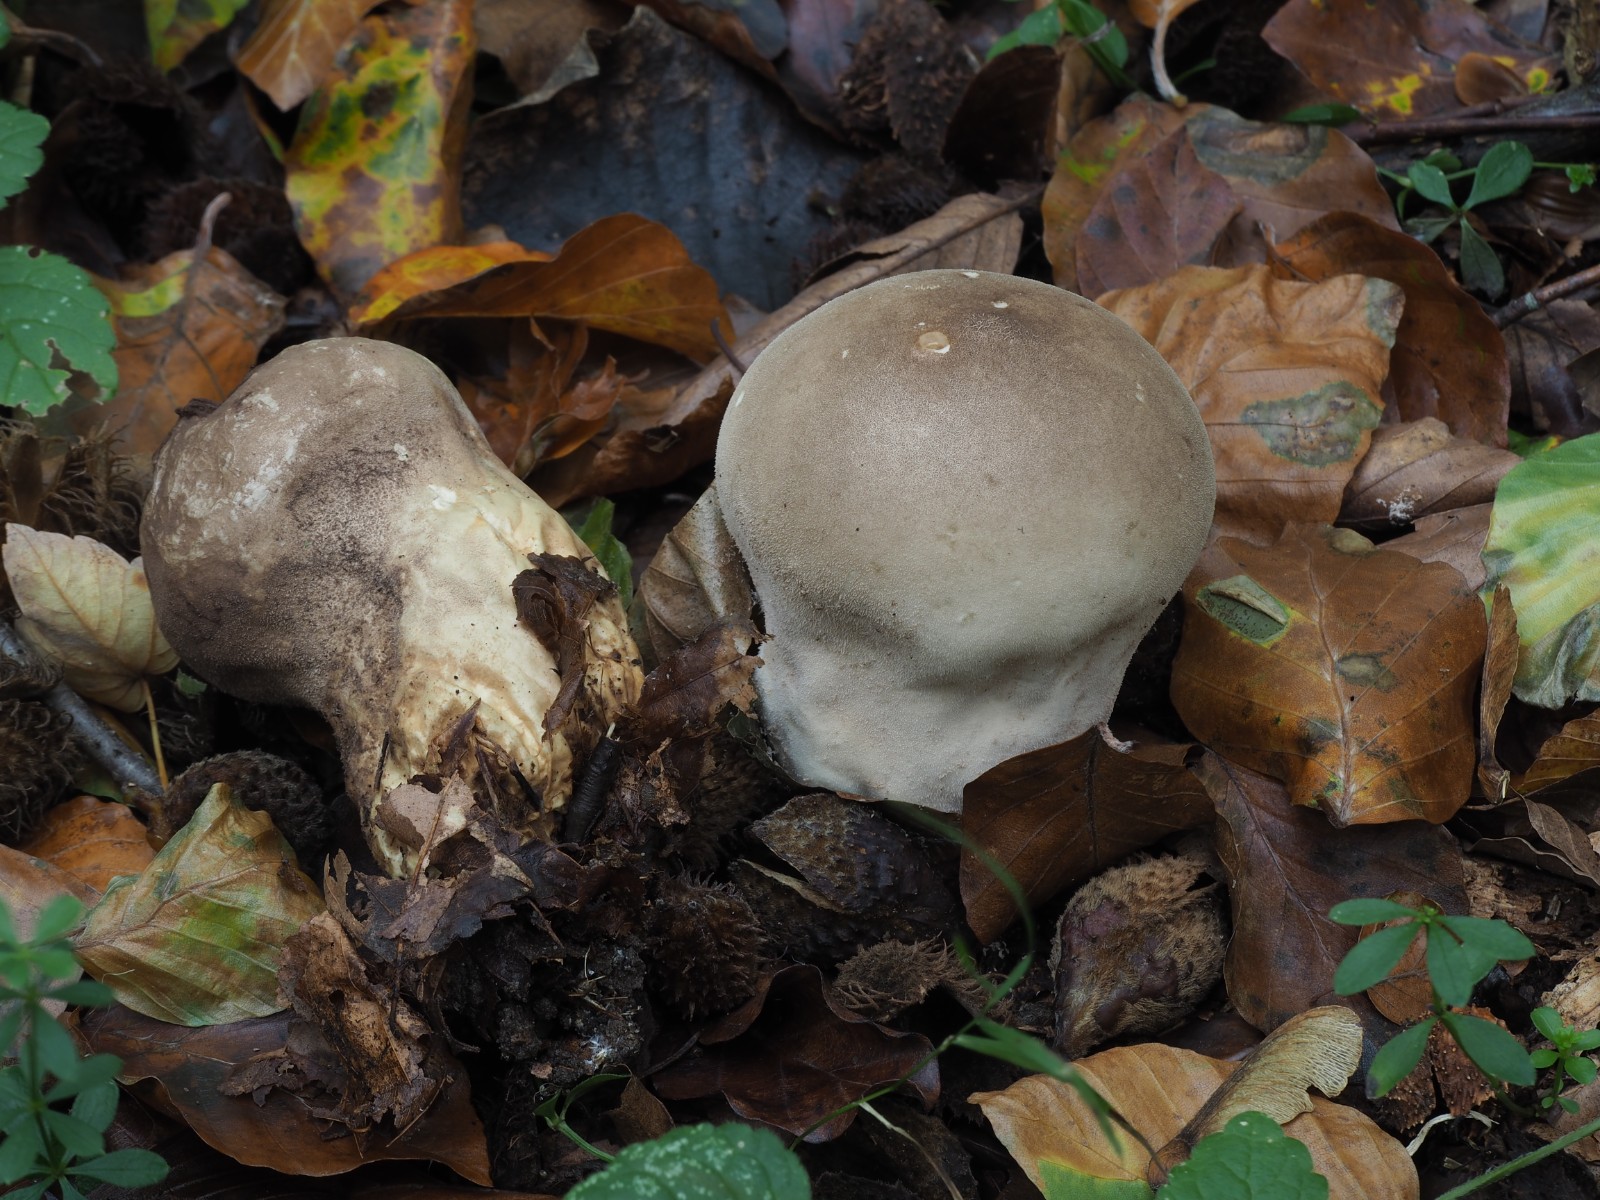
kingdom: Fungi
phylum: Basidiomycota
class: Agaricomycetes
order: Agaricales
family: Lycoperdaceae
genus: Lycoperdon
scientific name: Lycoperdon molle
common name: skov-støvbold
